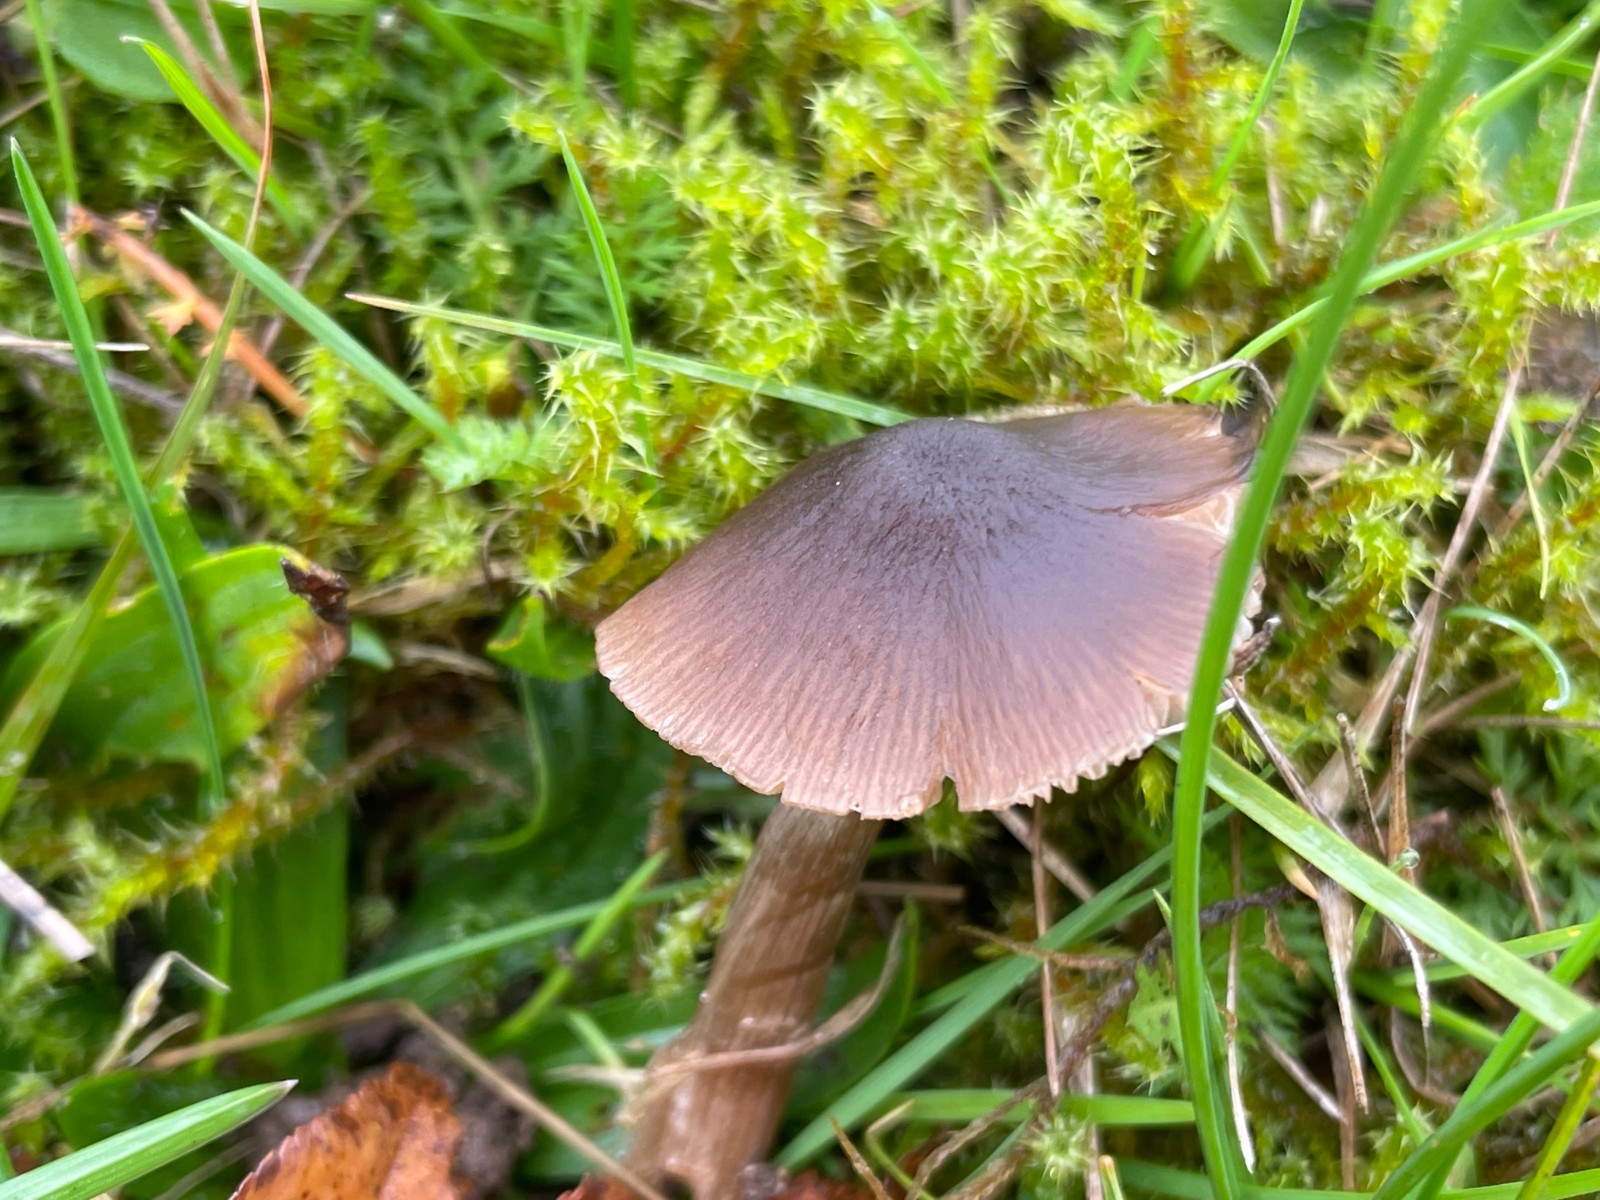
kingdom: Fungi
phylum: Basidiomycota
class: Agaricomycetes
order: Agaricales
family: Entolomataceae
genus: Entoloma
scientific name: Entoloma
